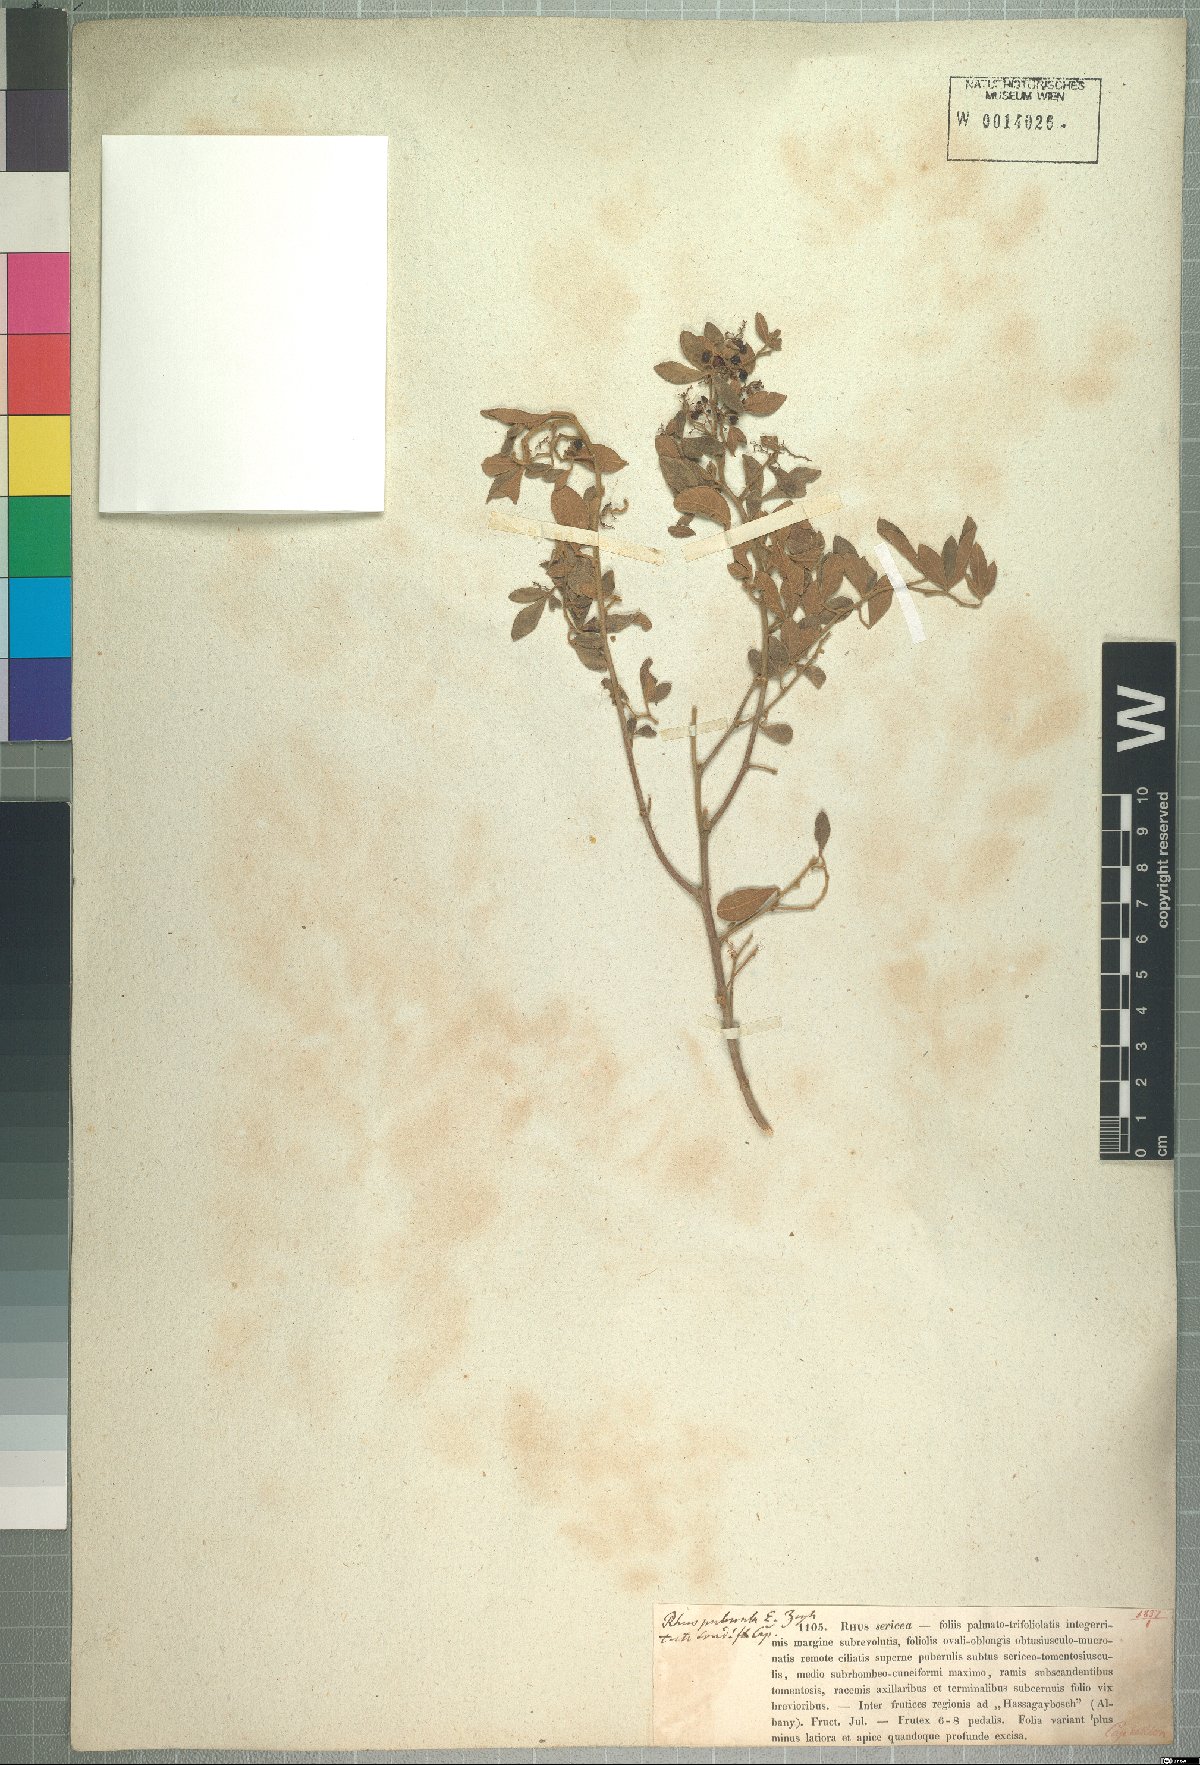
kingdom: Plantae
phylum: Tracheophyta
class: Magnoliopsida
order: Sapindales
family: Anacardiaceae
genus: Searsia
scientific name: Searsia fastigiata
